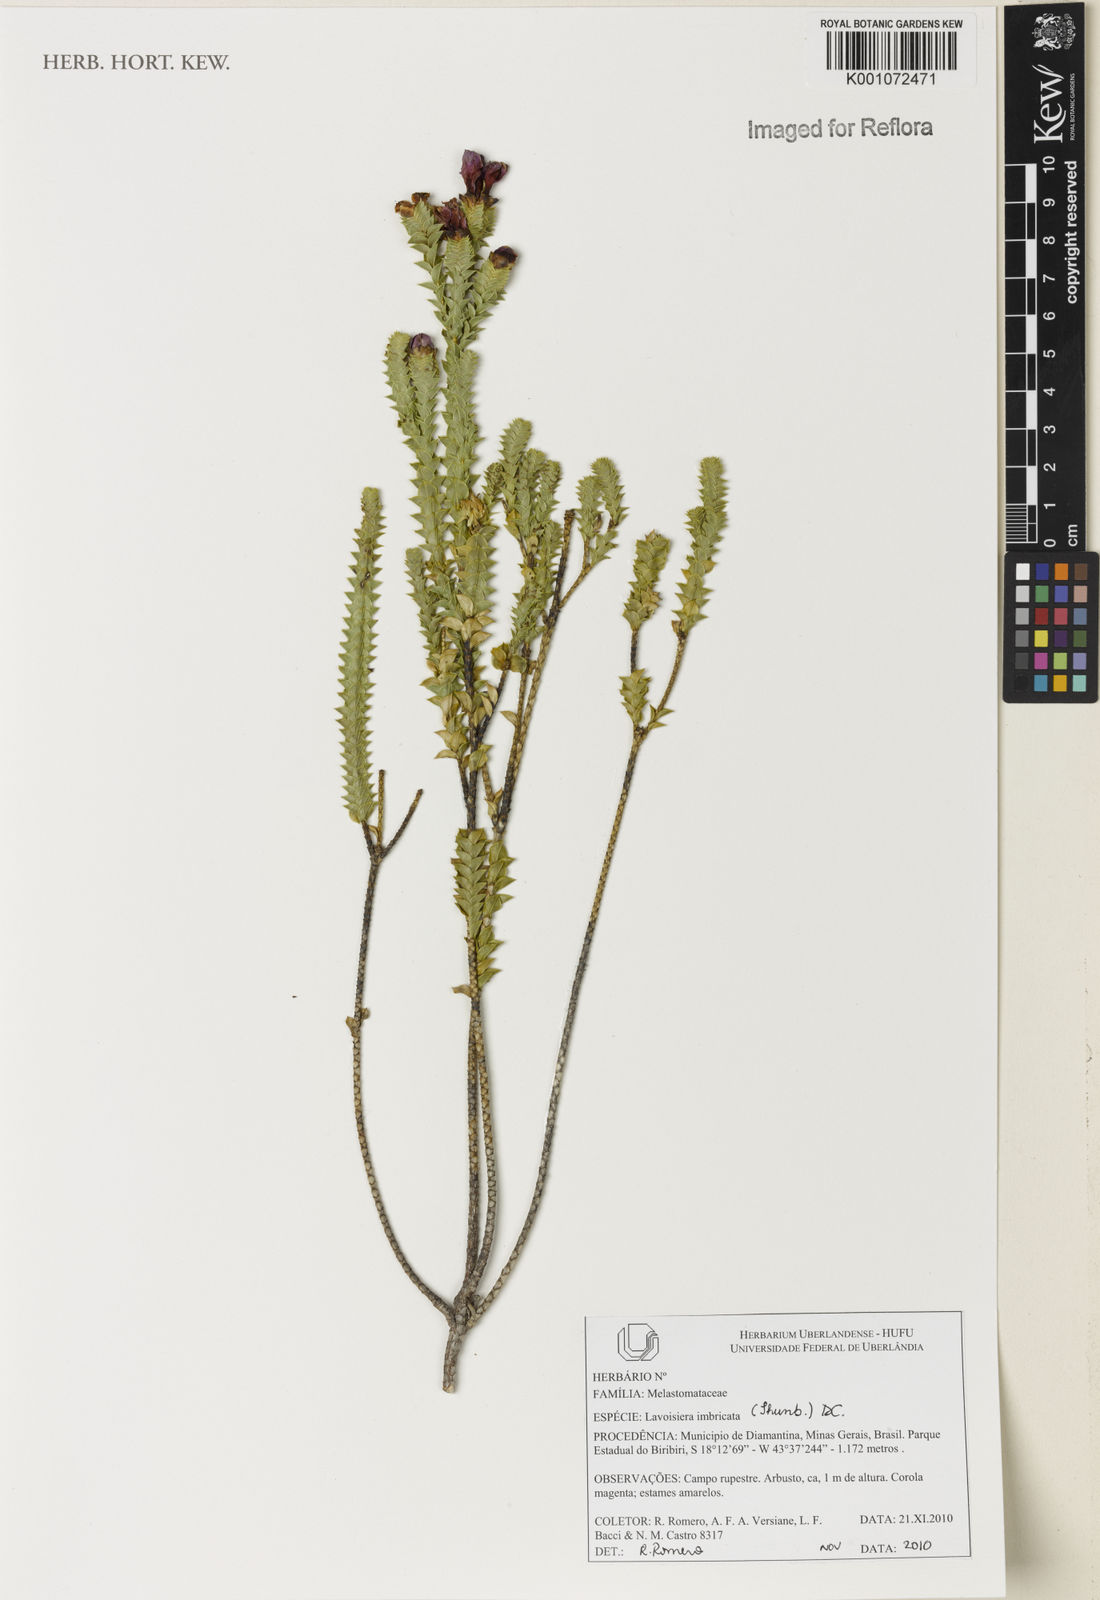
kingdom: Plantae
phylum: Tracheophyta
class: Magnoliopsida
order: Myrtales
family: Melastomataceae
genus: Microlicia
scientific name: Microlicia cataphracta
